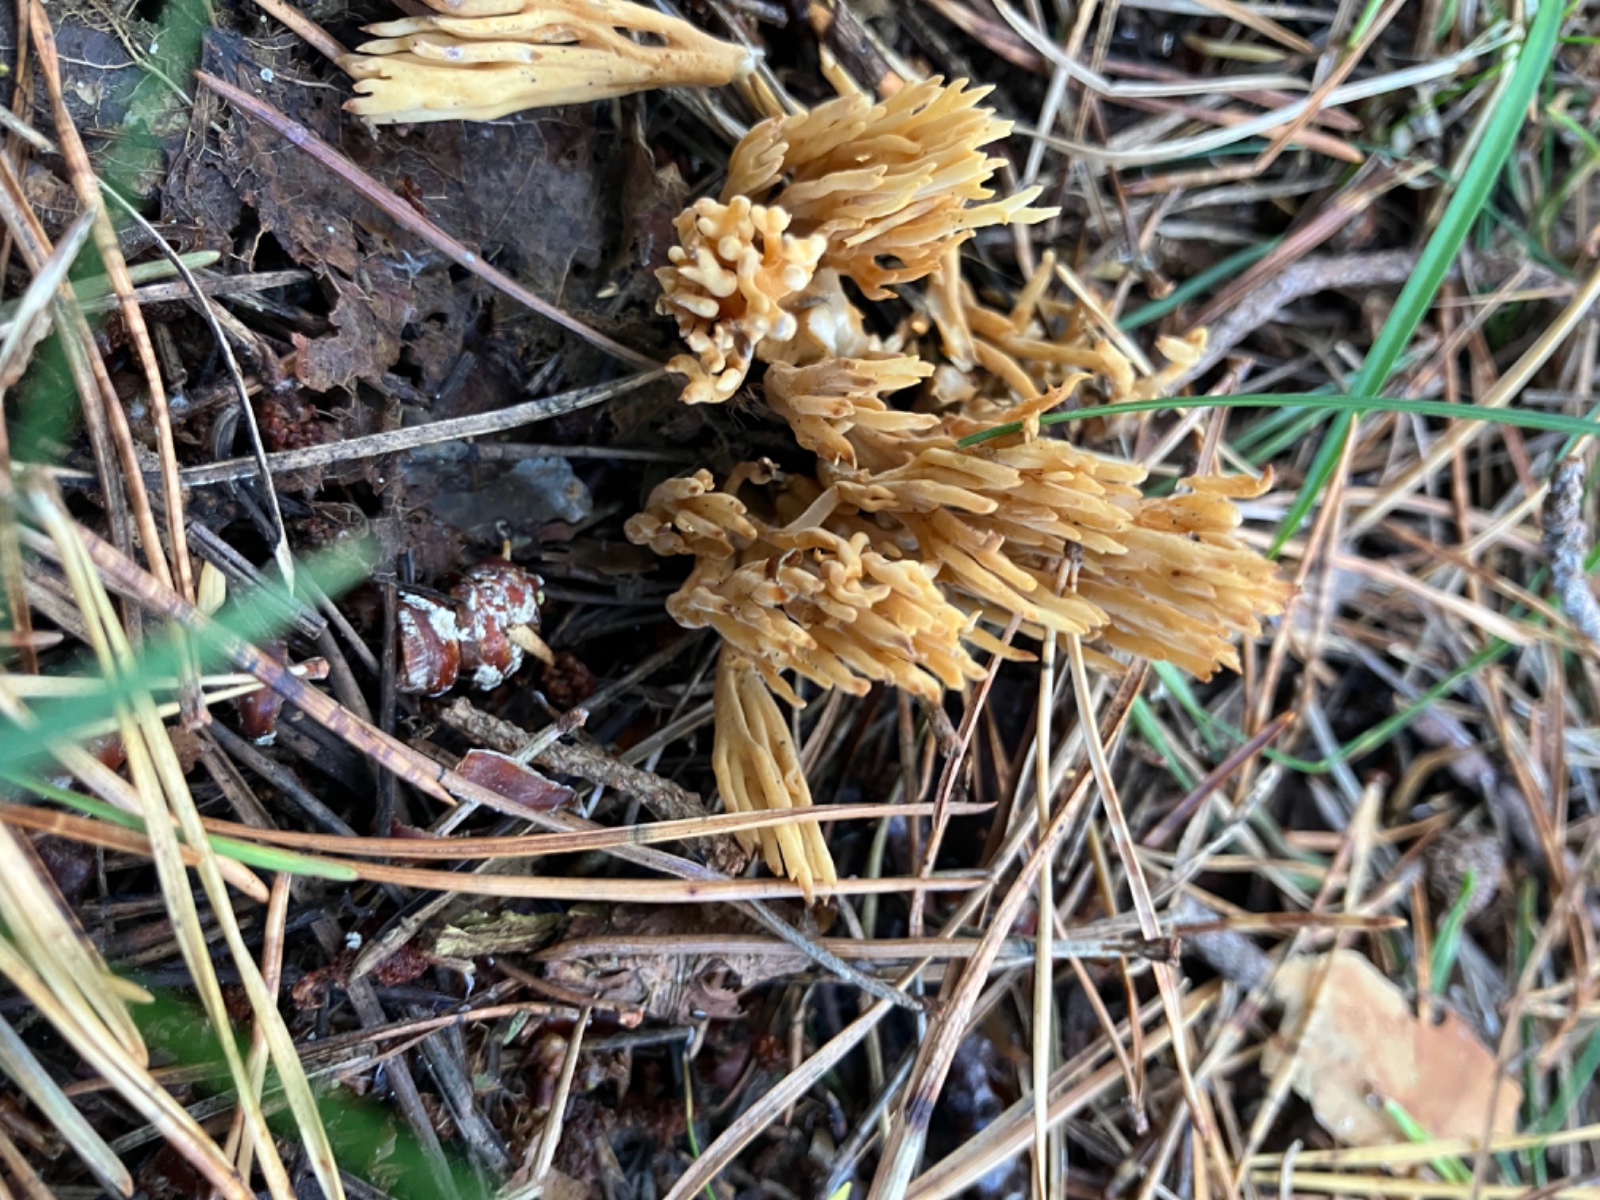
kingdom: Fungi
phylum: Basidiomycota
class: Agaricomycetes
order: Gomphales
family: Gomphaceae
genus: Phaeoclavulina
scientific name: Phaeoclavulina eumorpha
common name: gran-koralsvamp
